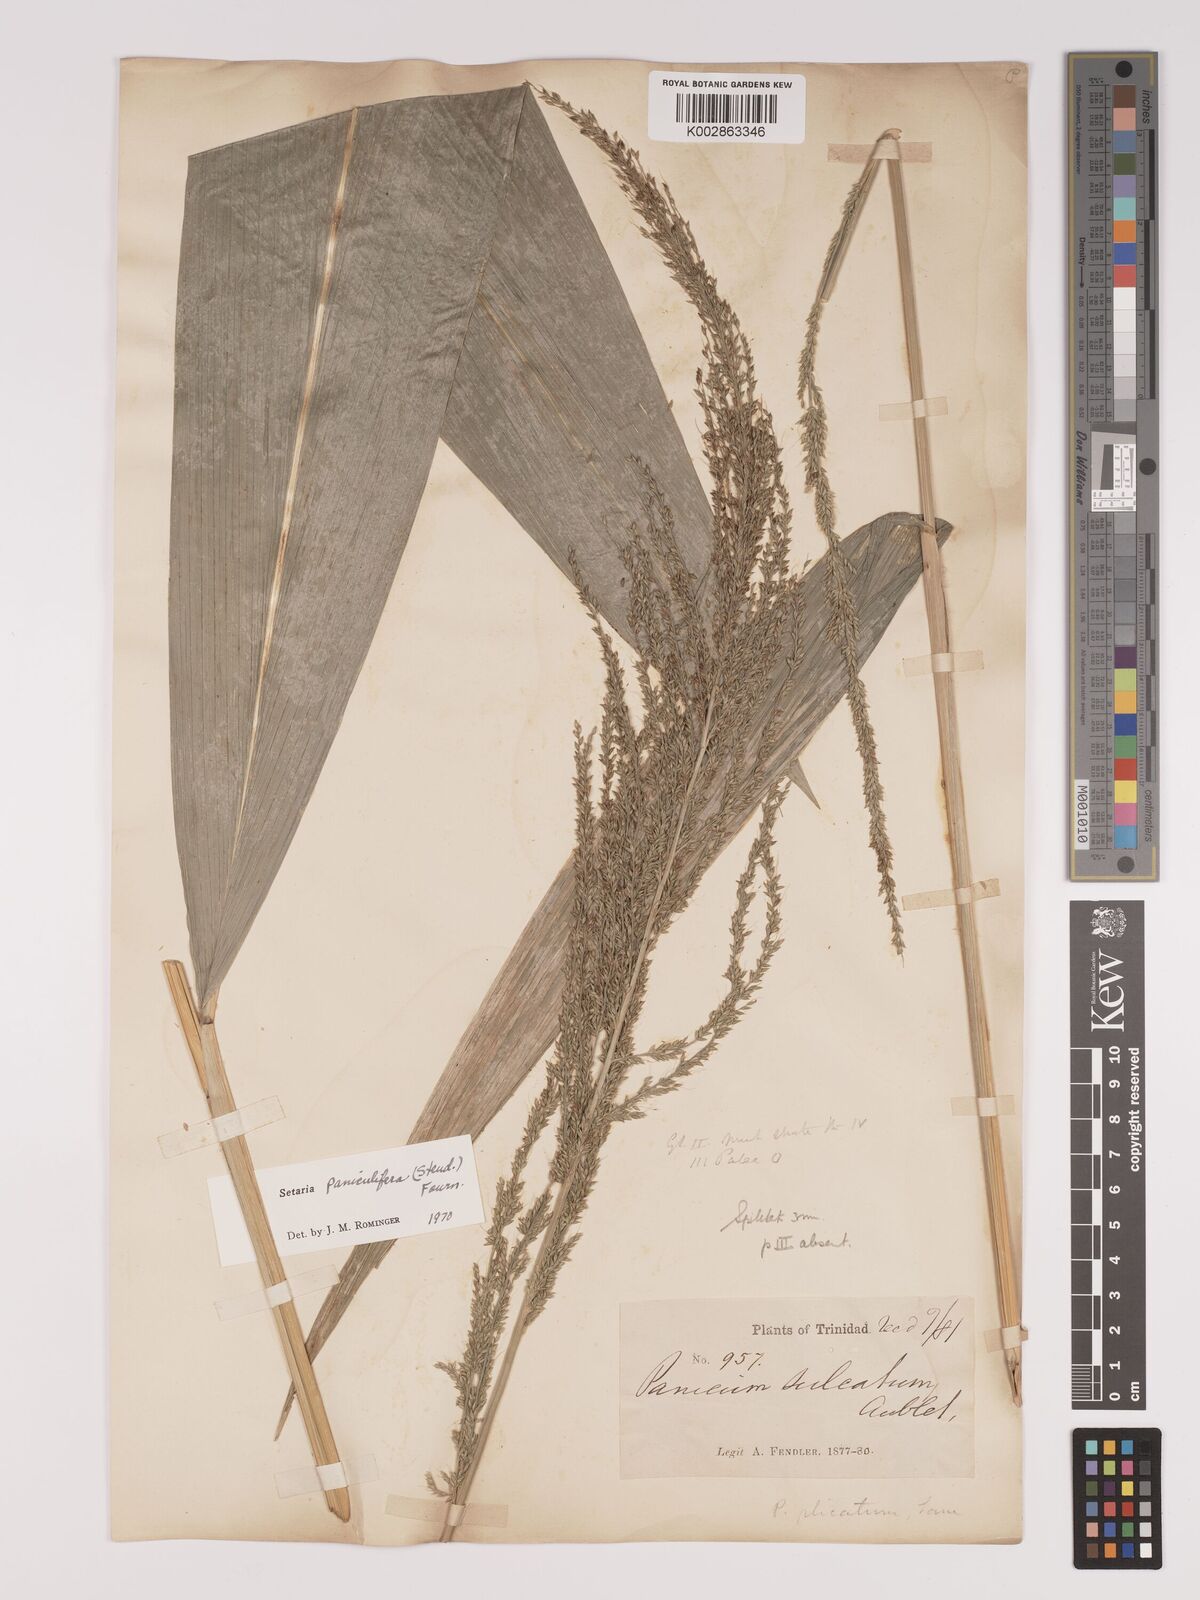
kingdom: Plantae
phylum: Tracheophyta
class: Liliopsida
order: Poales
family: Poaceae
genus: Setaria
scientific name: Setaria palmifolia
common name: Broadleaved bristlegrass
